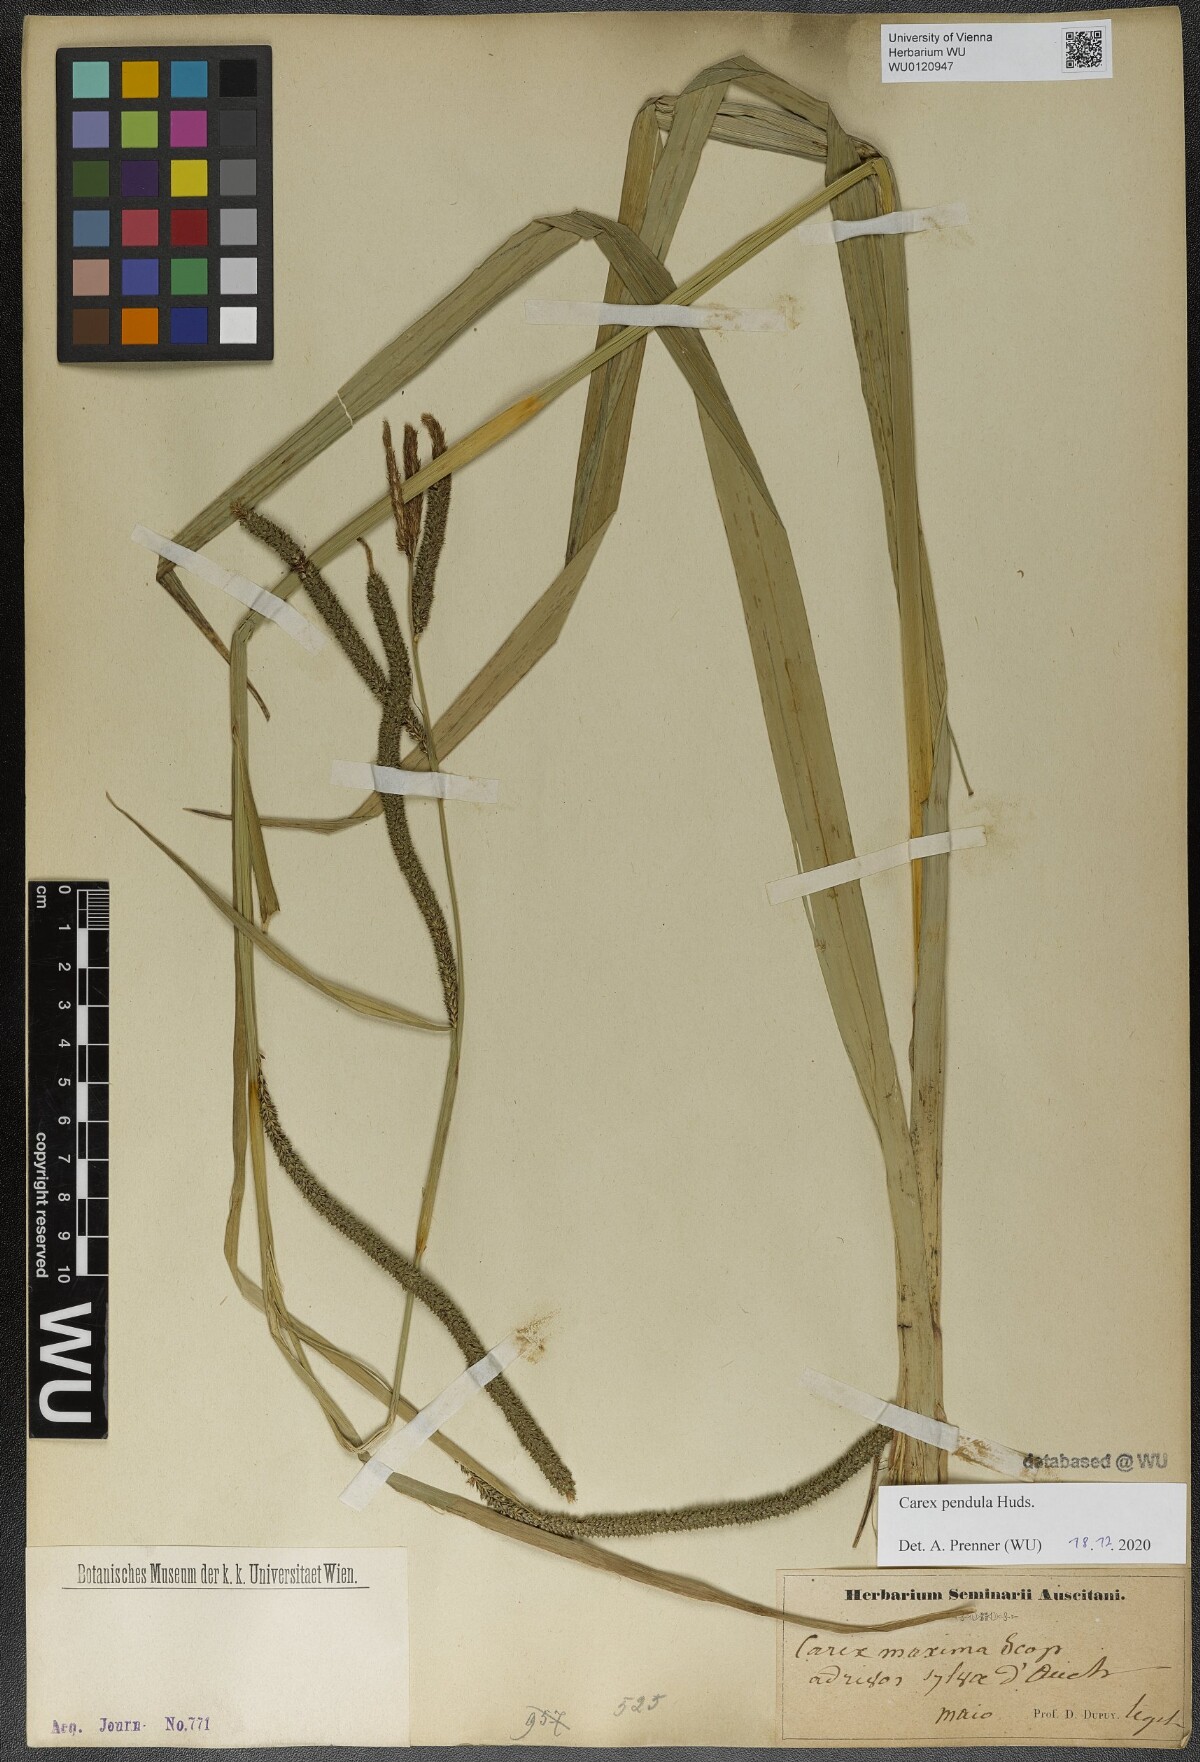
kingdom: Plantae
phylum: Tracheophyta
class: Liliopsida
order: Poales
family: Cyperaceae
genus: Carex
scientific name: Carex pendula
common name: Pendulous sedge
